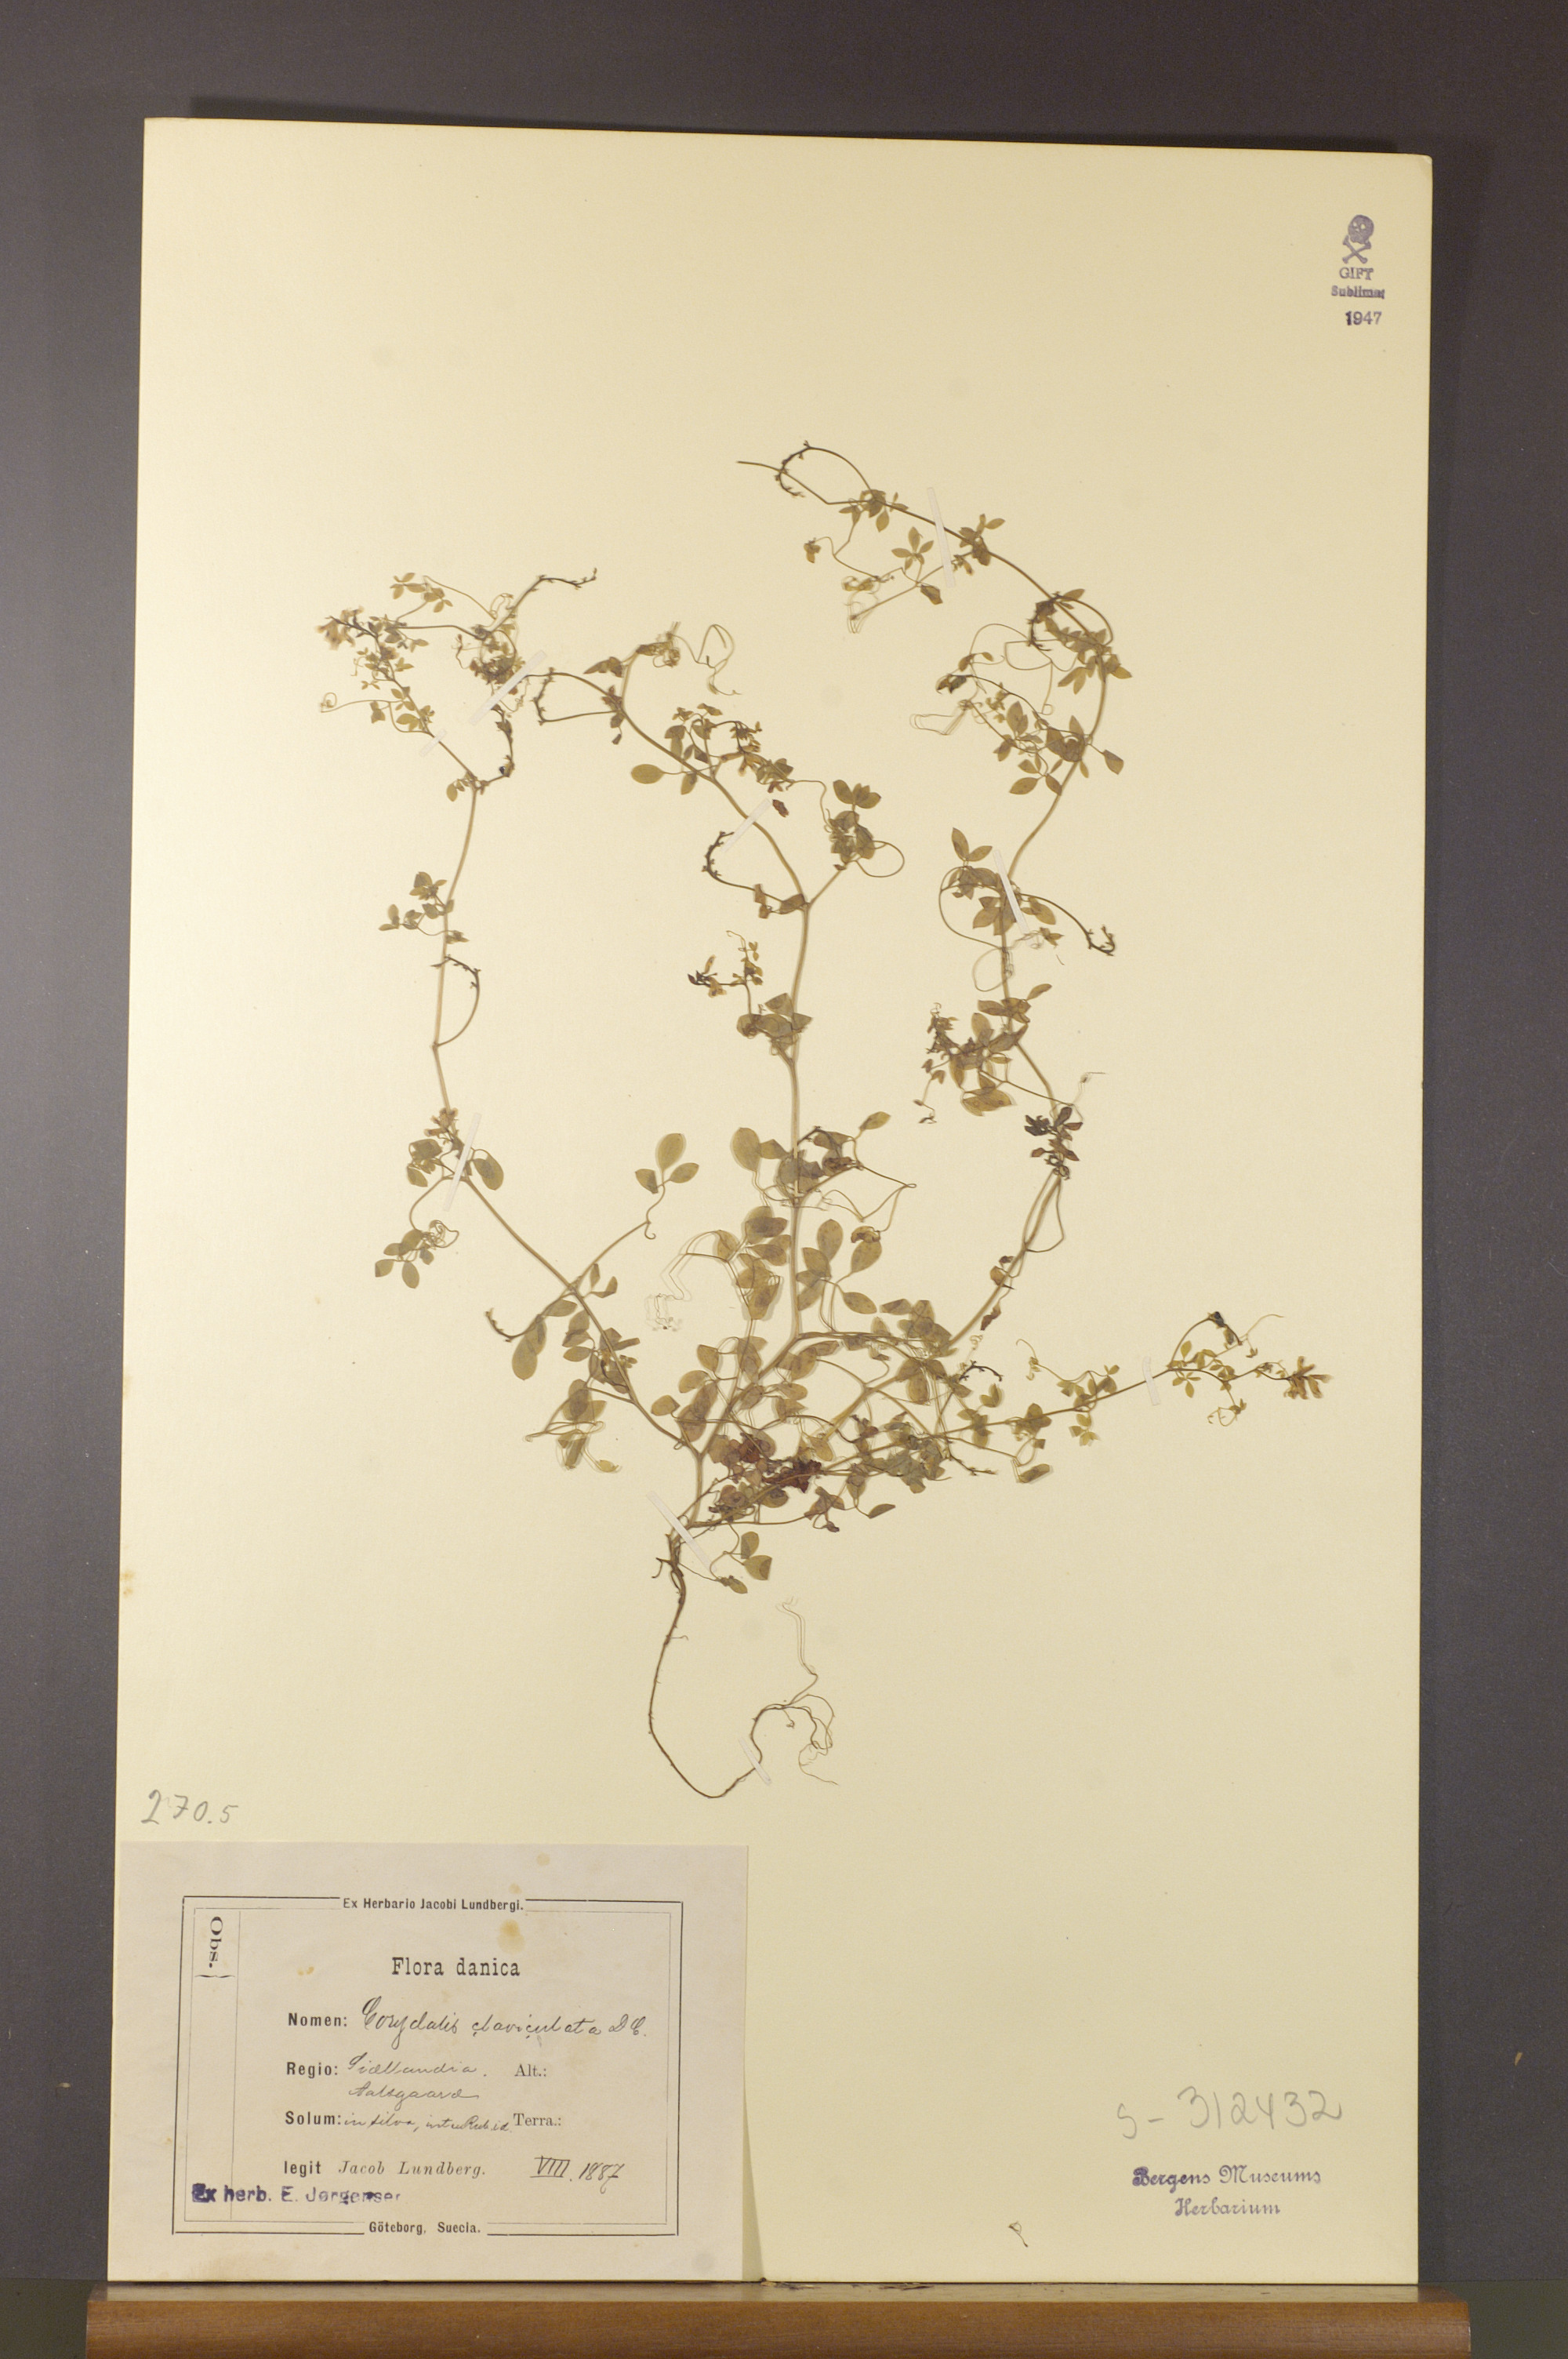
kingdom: Plantae
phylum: Tracheophyta
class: Magnoliopsida
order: Ranunculales
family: Papaveraceae
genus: Ceratocapnos
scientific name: Ceratocapnos claviculata
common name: Climbing corydalis
